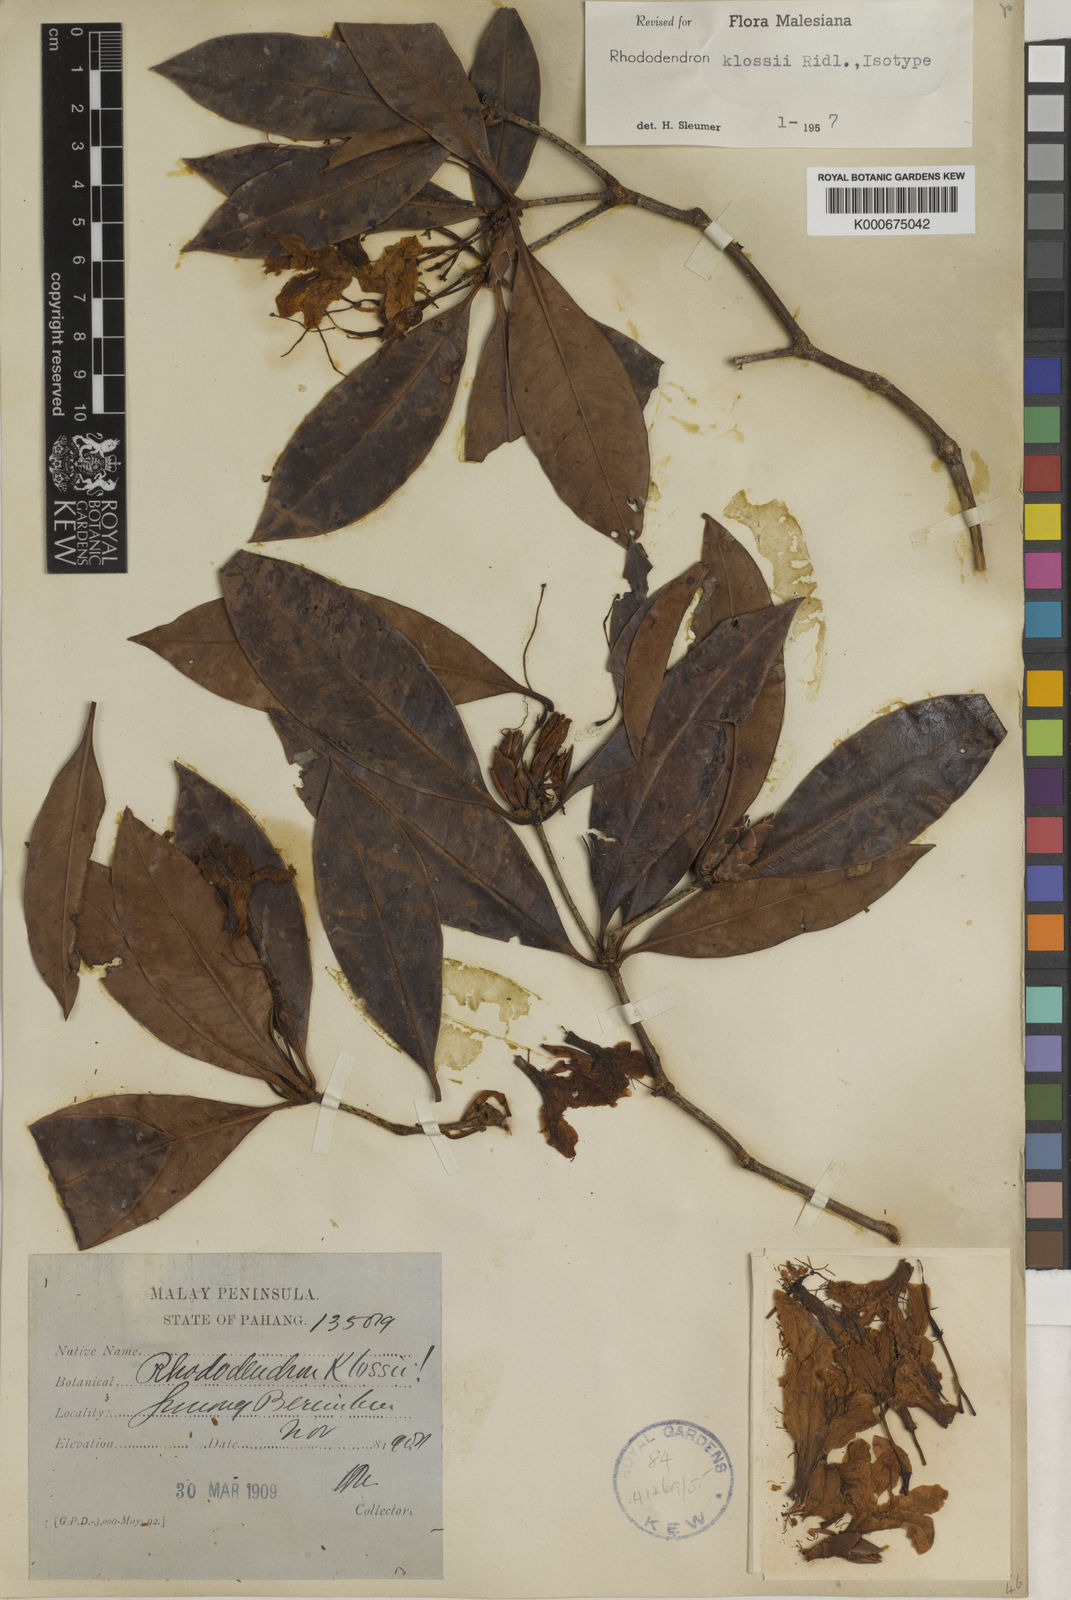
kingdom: Plantae
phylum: Tracheophyta
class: Magnoliopsida
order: Ericales
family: Ericaceae
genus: Rhododendron
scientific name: Rhododendron moulmainense
